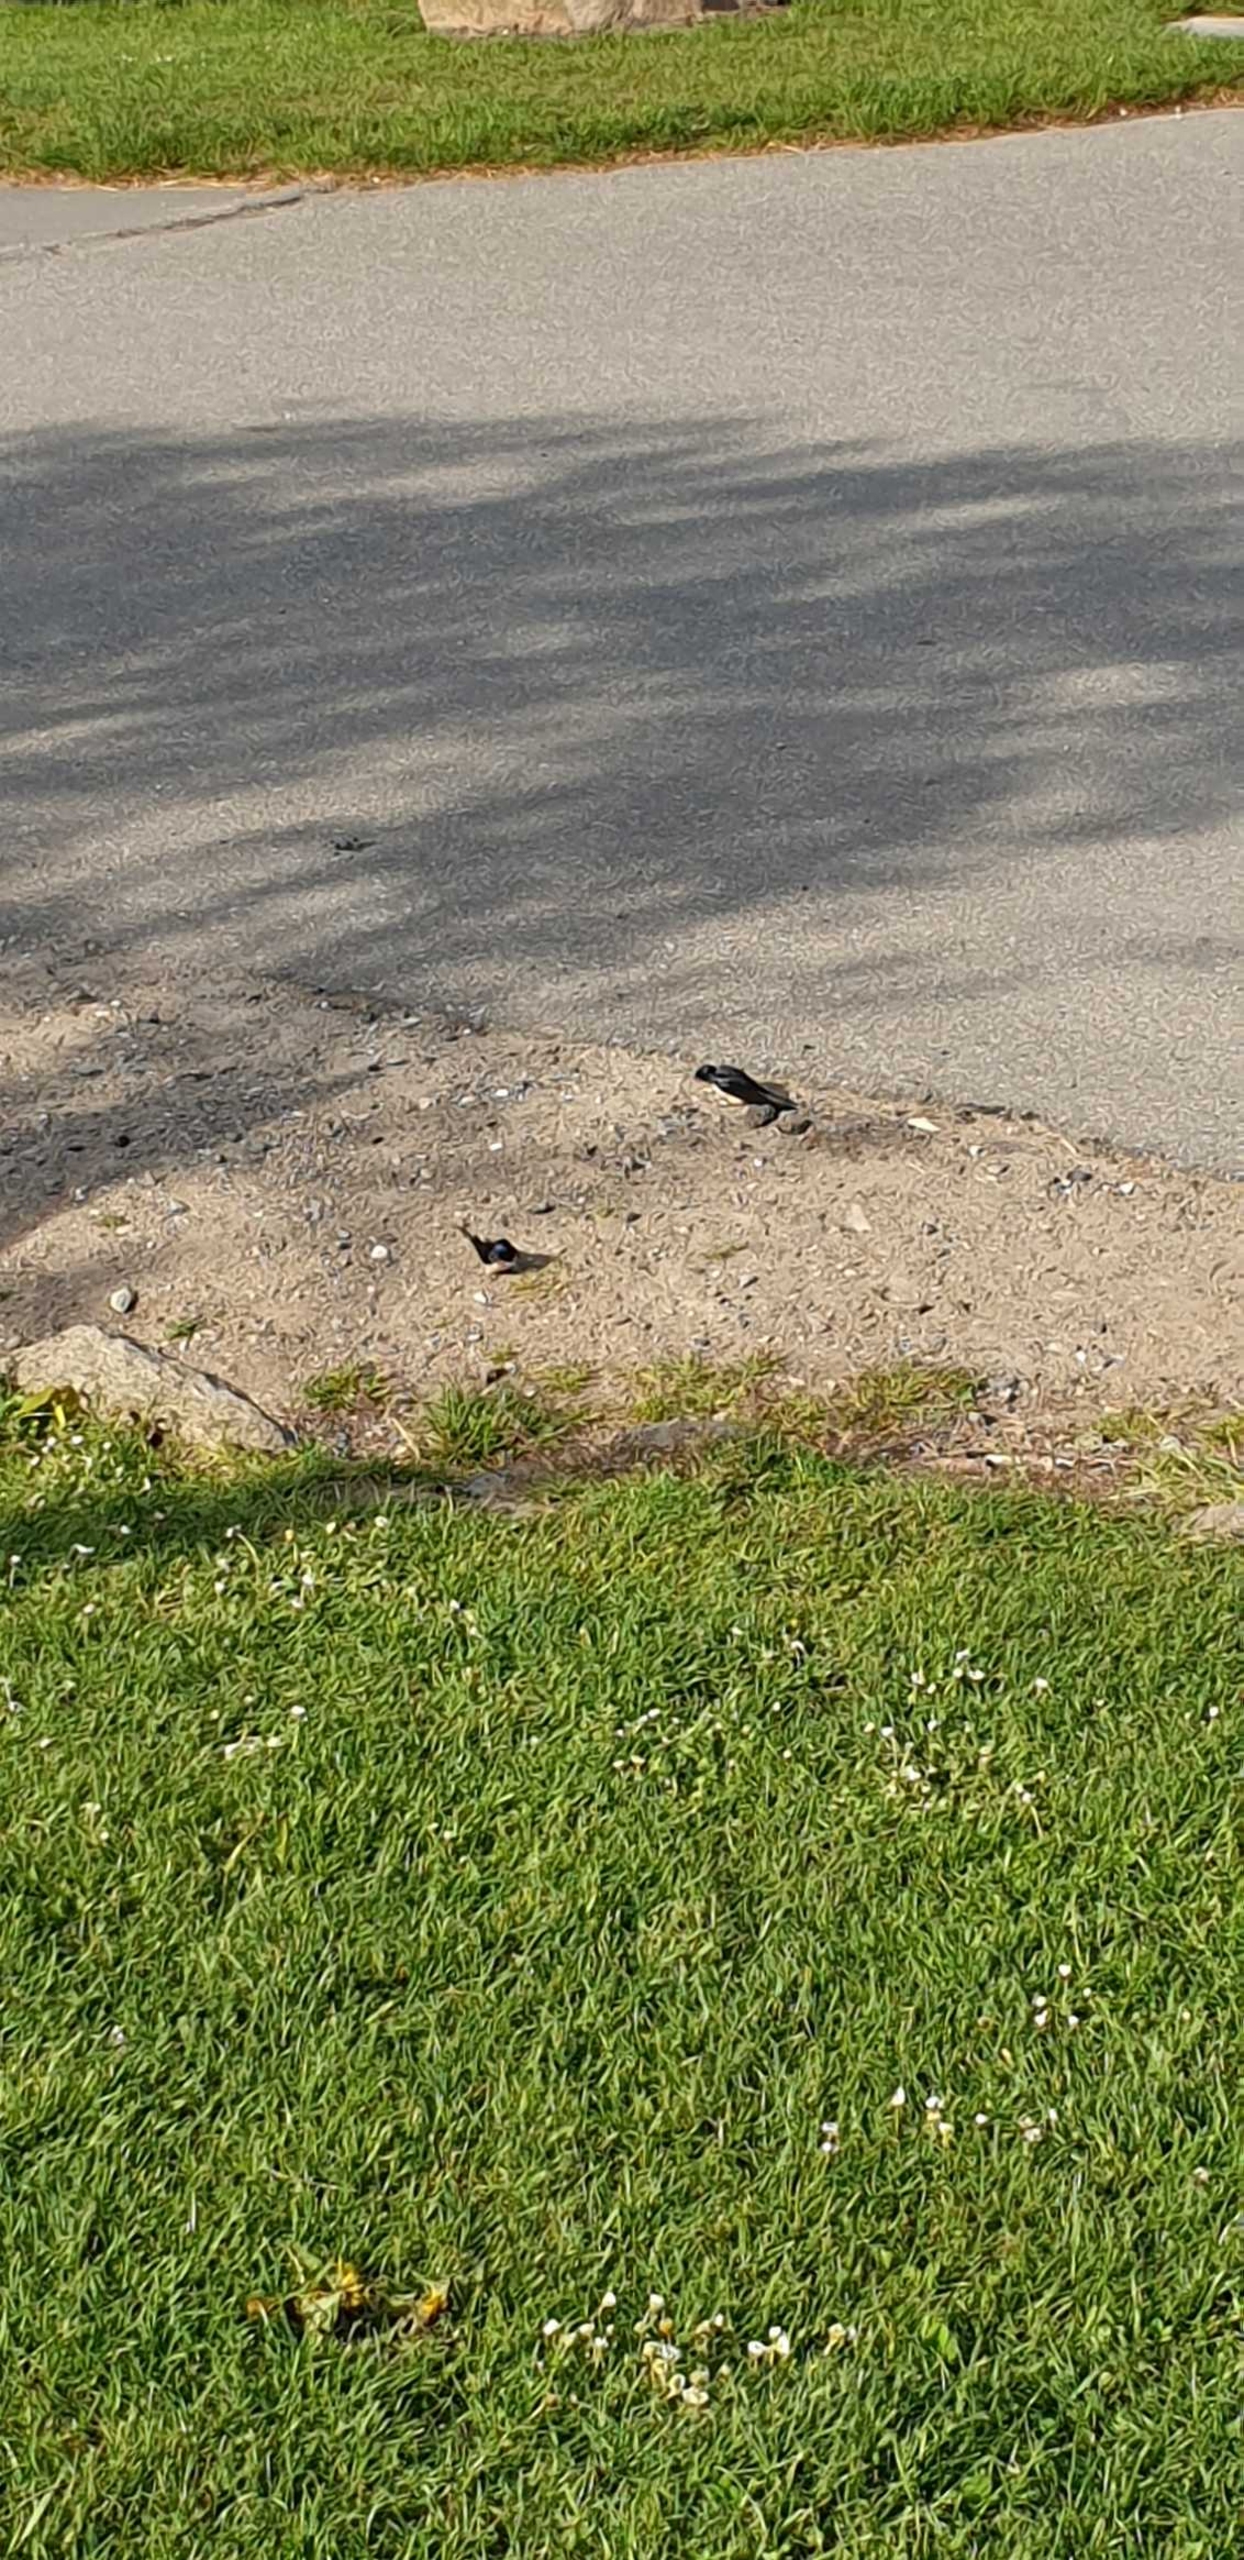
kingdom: Animalia
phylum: Chordata
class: Aves
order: Passeriformes
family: Hirundinidae
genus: Hirundo
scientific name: Hirundo rustica
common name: Landsvale
